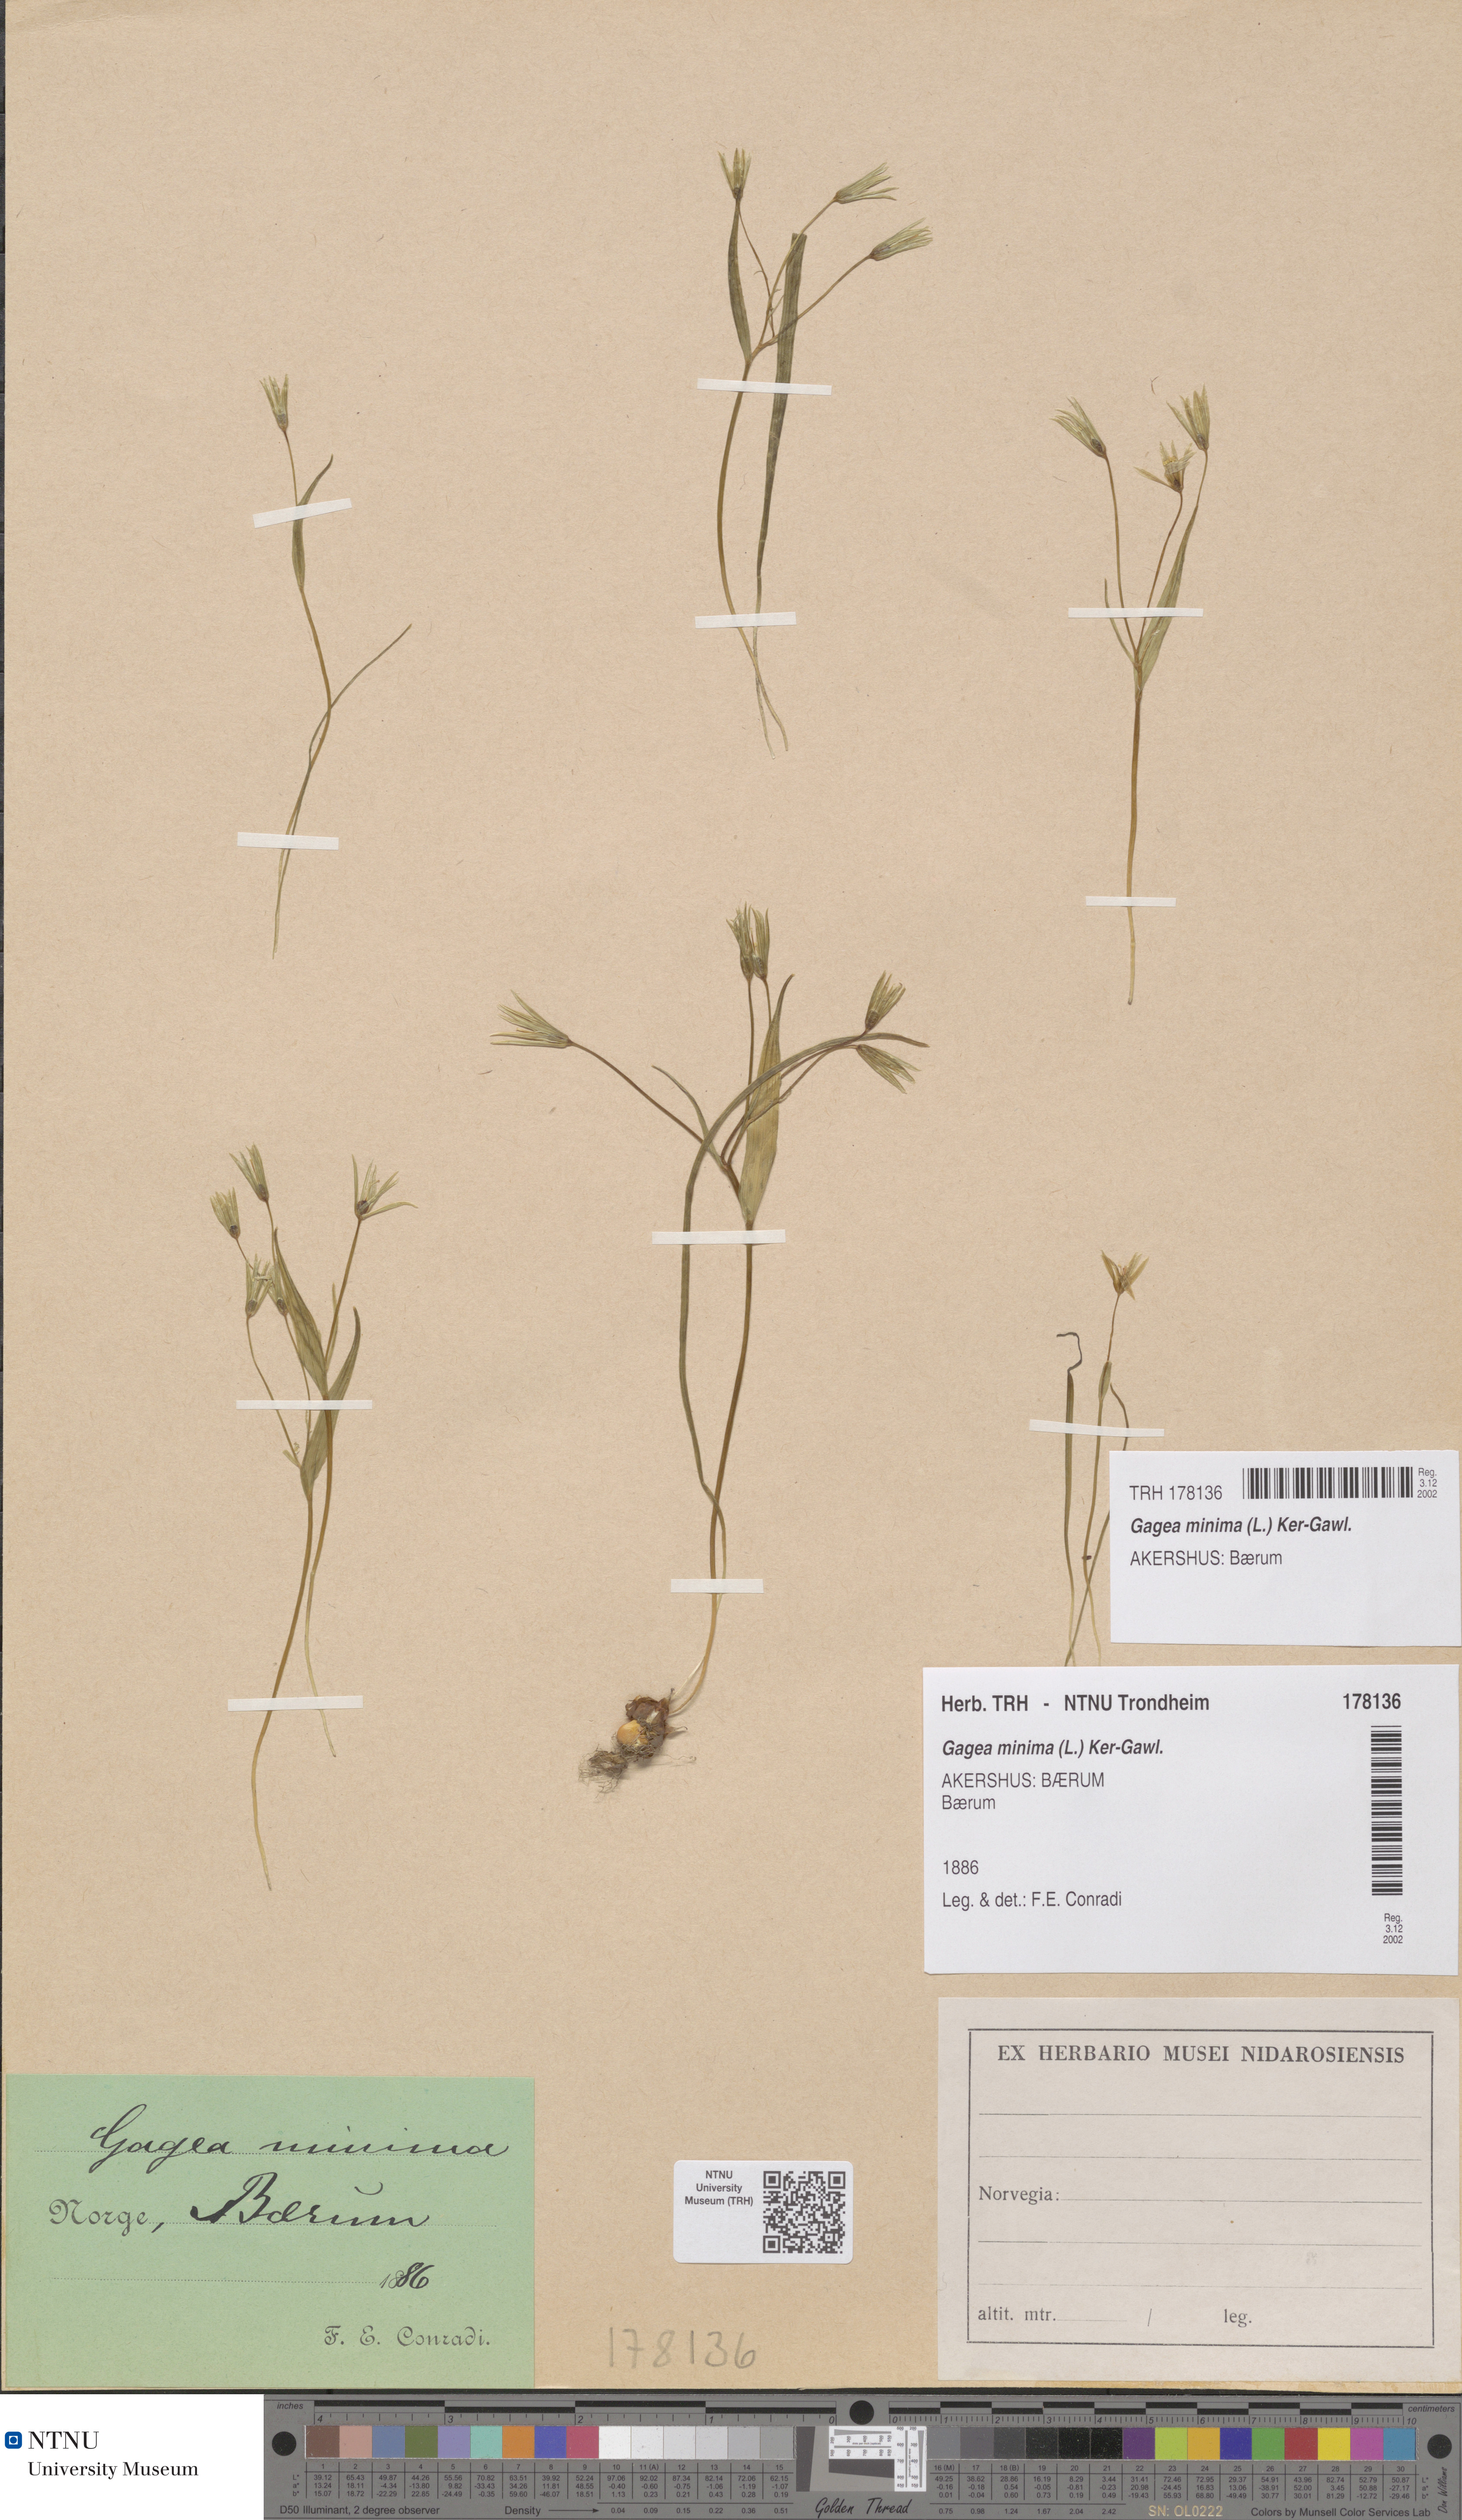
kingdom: Plantae
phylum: Tracheophyta
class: Liliopsida
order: Liliales
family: Liliaceae
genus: Gagea
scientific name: Gagea minima
